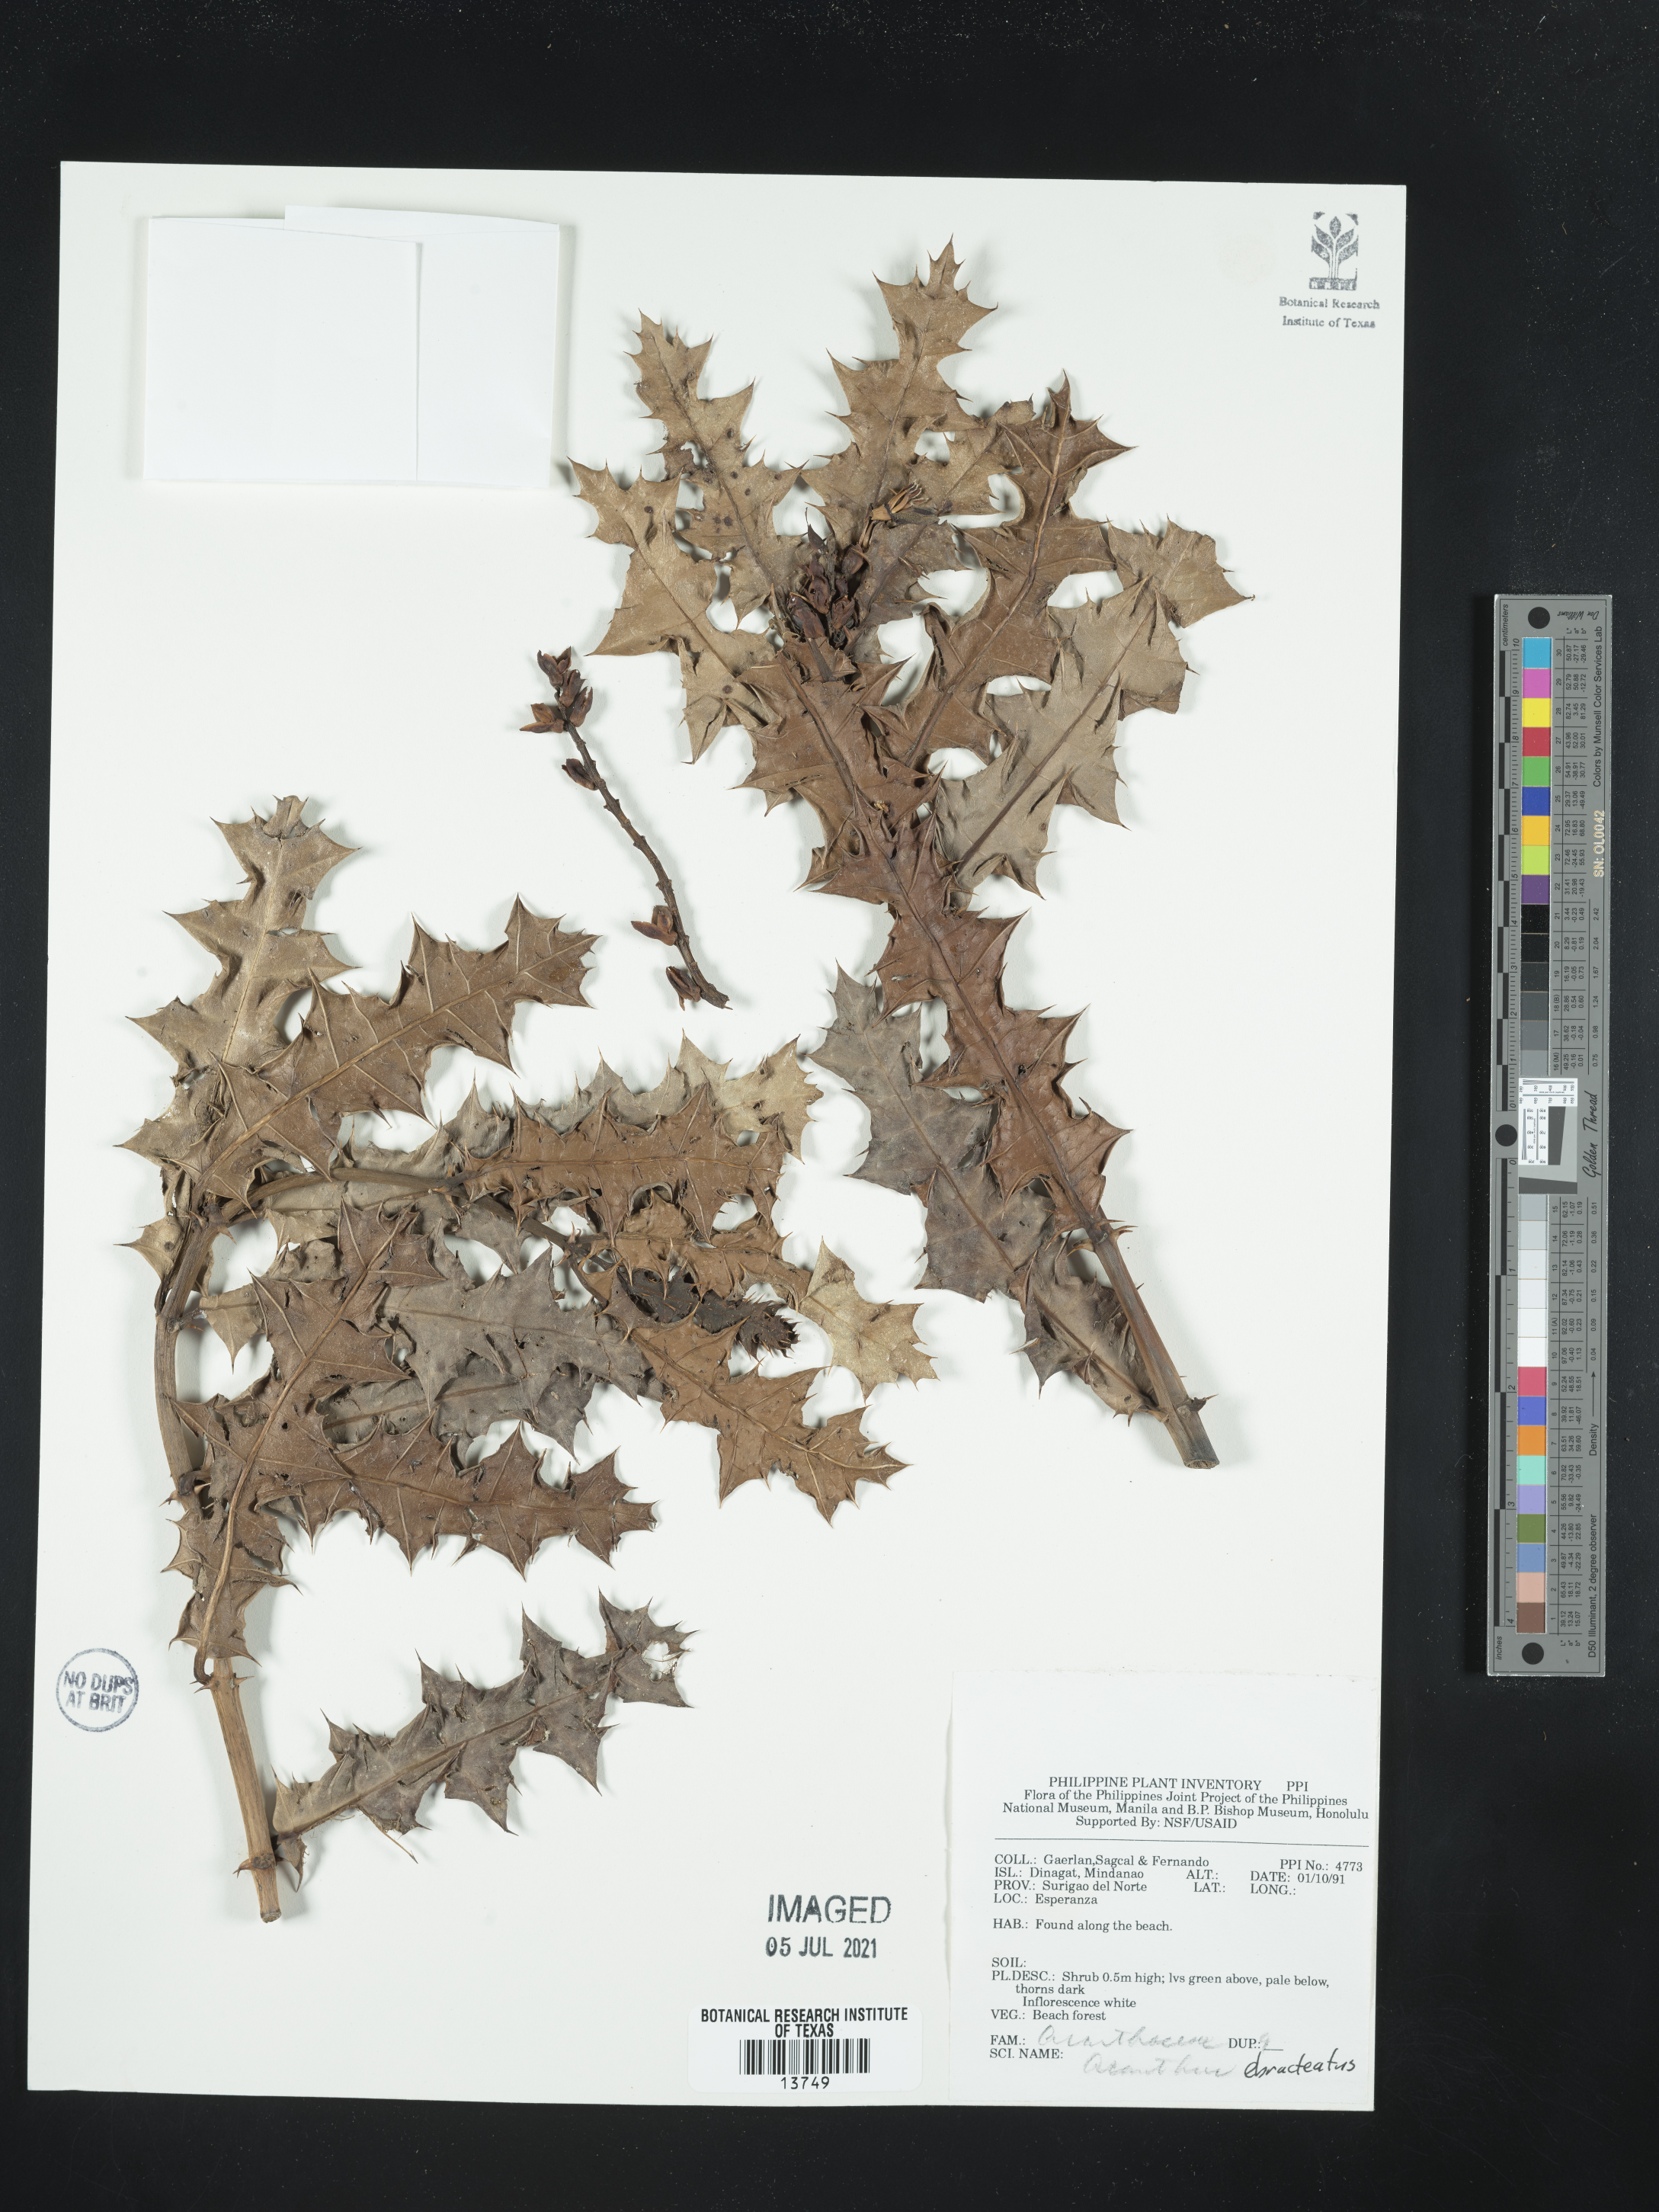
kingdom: Plantae
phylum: Tracheophyta
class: Magnoliopsida
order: Lamiales
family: Acanthaceae
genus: Acanthus
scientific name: Acanthus ebracteatus
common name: Acanthus
